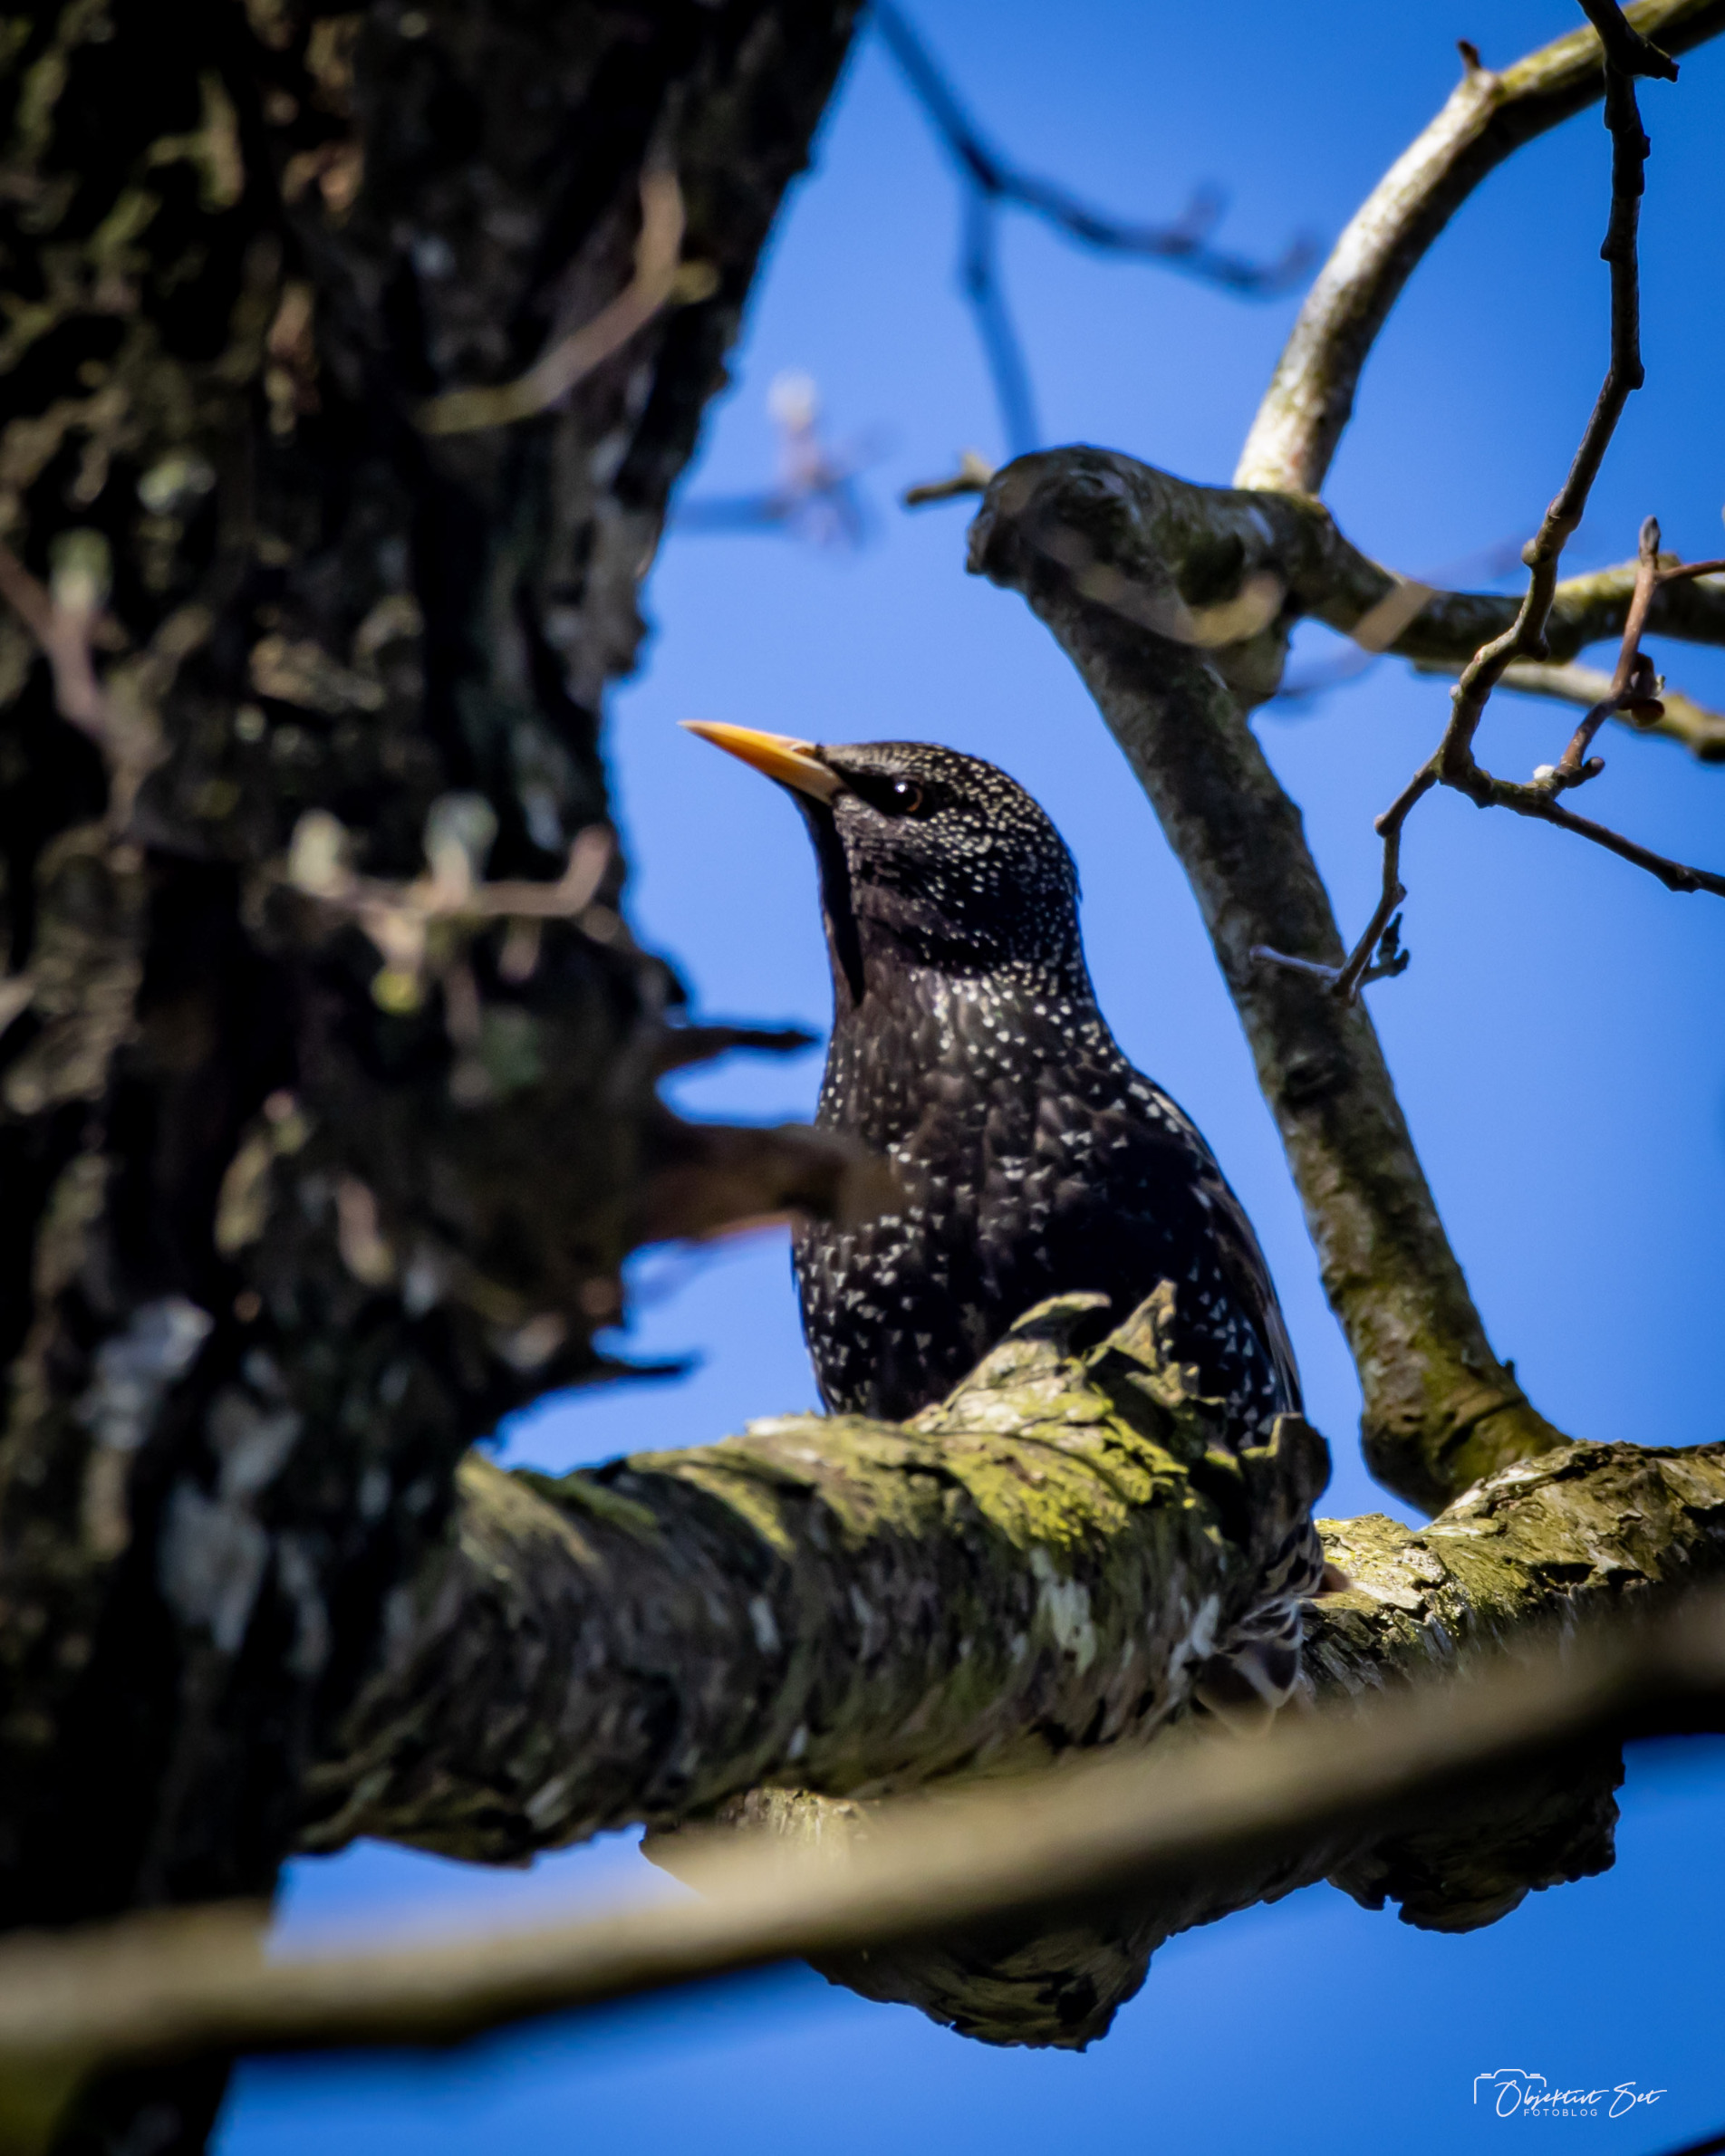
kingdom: Animalia
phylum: Chordata
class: Aves
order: Passeriformes
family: Sturnidae
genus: Sturnus
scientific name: Sturnus vulgaris
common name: Stær
